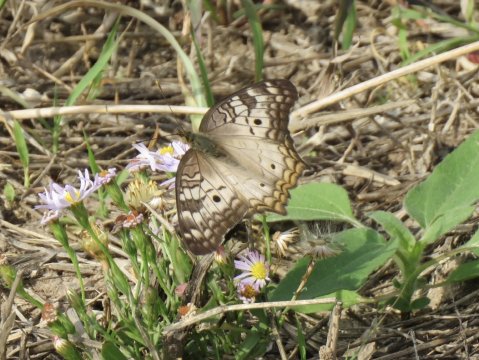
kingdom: Animalia
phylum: Arthropoda
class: Insecta
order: Lepidoptera
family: Nymphalidae
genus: Anartia
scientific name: Anartia jatrophae
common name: White Peacock
